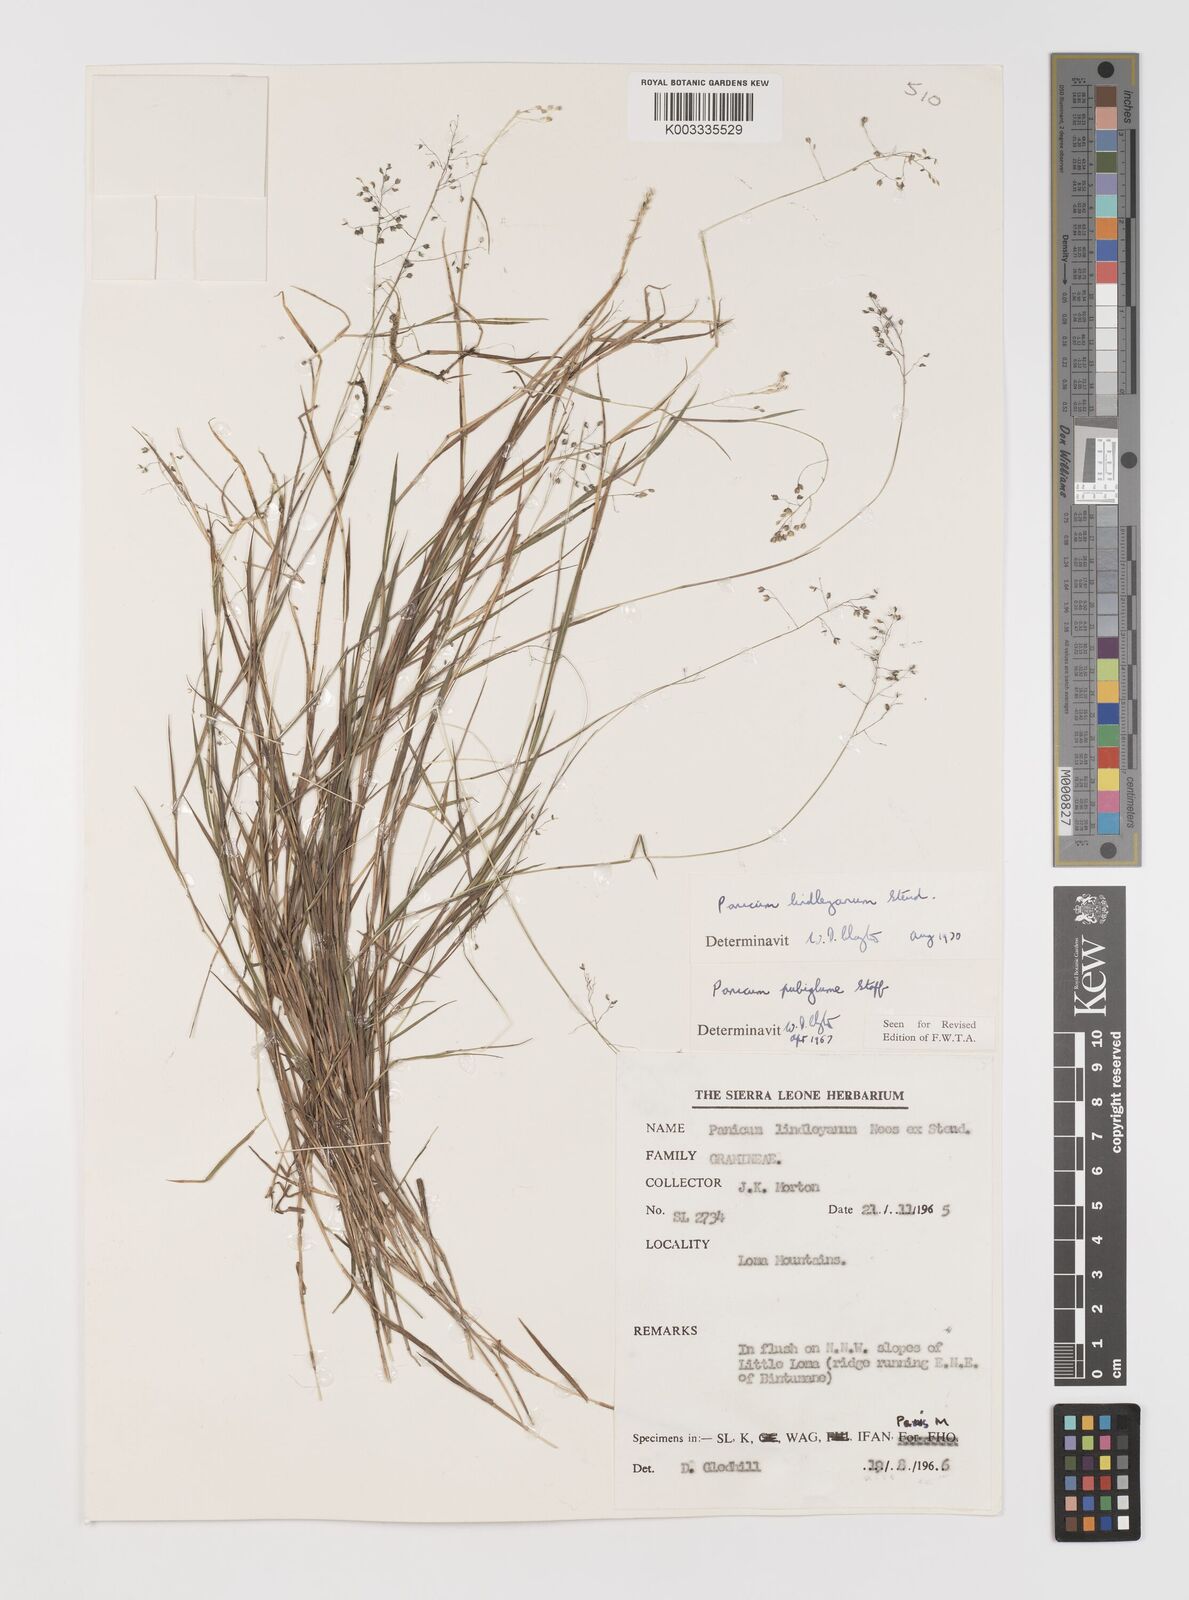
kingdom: Plantae
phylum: Tracheophyta
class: Liliopsida
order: Poales
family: Poaceae
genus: Trichanthecium
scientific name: Trichanthecium tenellum
